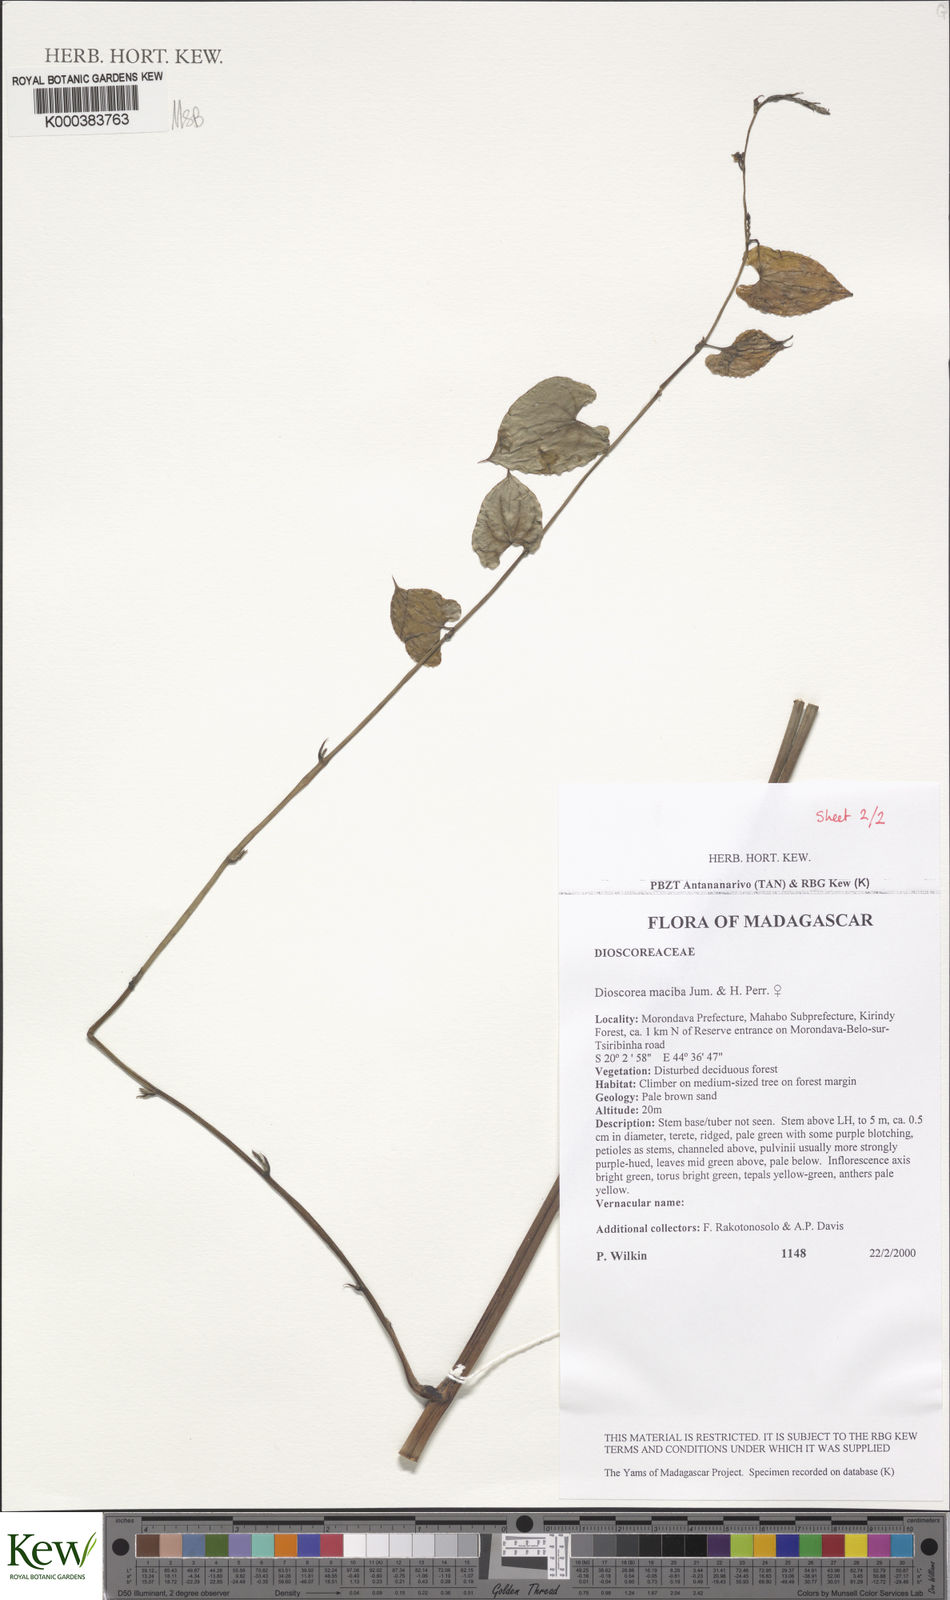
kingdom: Plantae
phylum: Tracheophyta
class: Liliopsida
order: Dioscoreales
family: Dioscoreaceae
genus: Dioscorea
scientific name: Dioscorea
